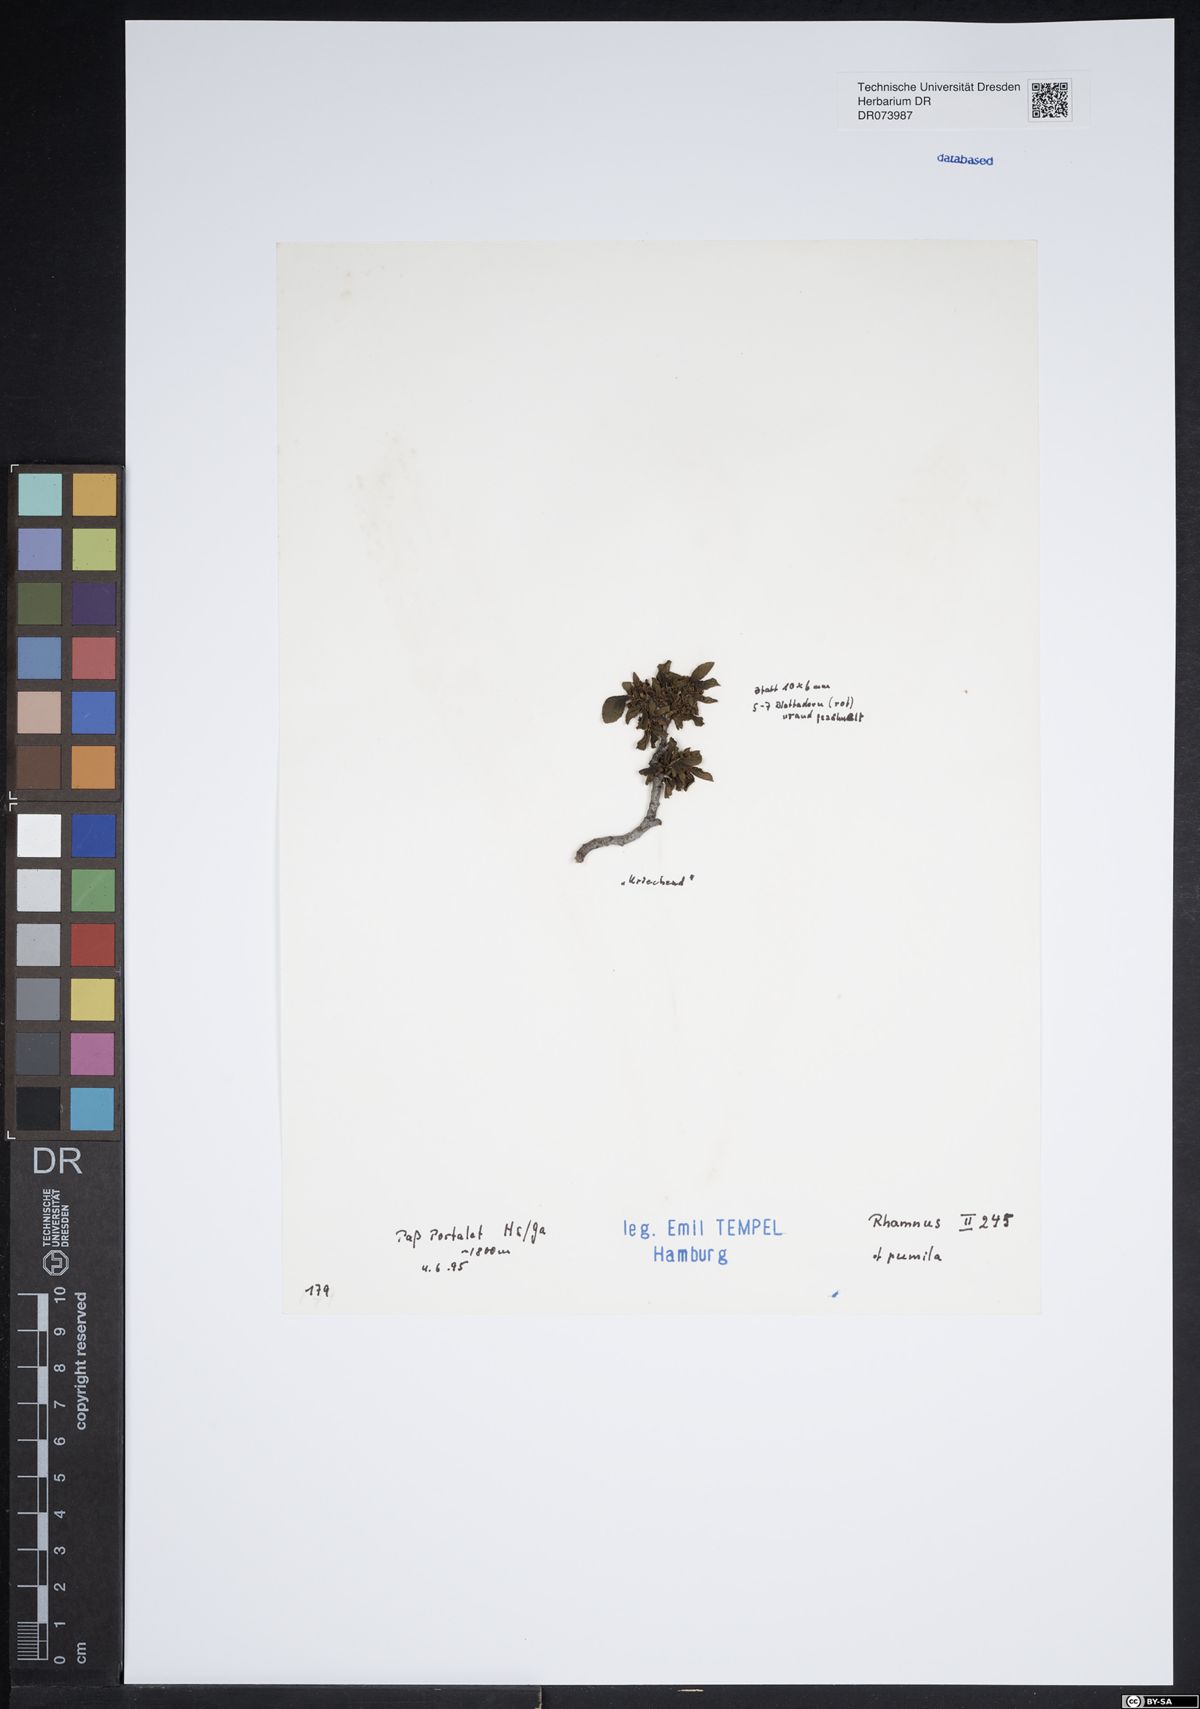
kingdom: Plantae
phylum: Tracheophyta
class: Magnoliopsida
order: Rosales
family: Rhamnaceae
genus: Atadinus
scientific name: Atadinus pumilus
